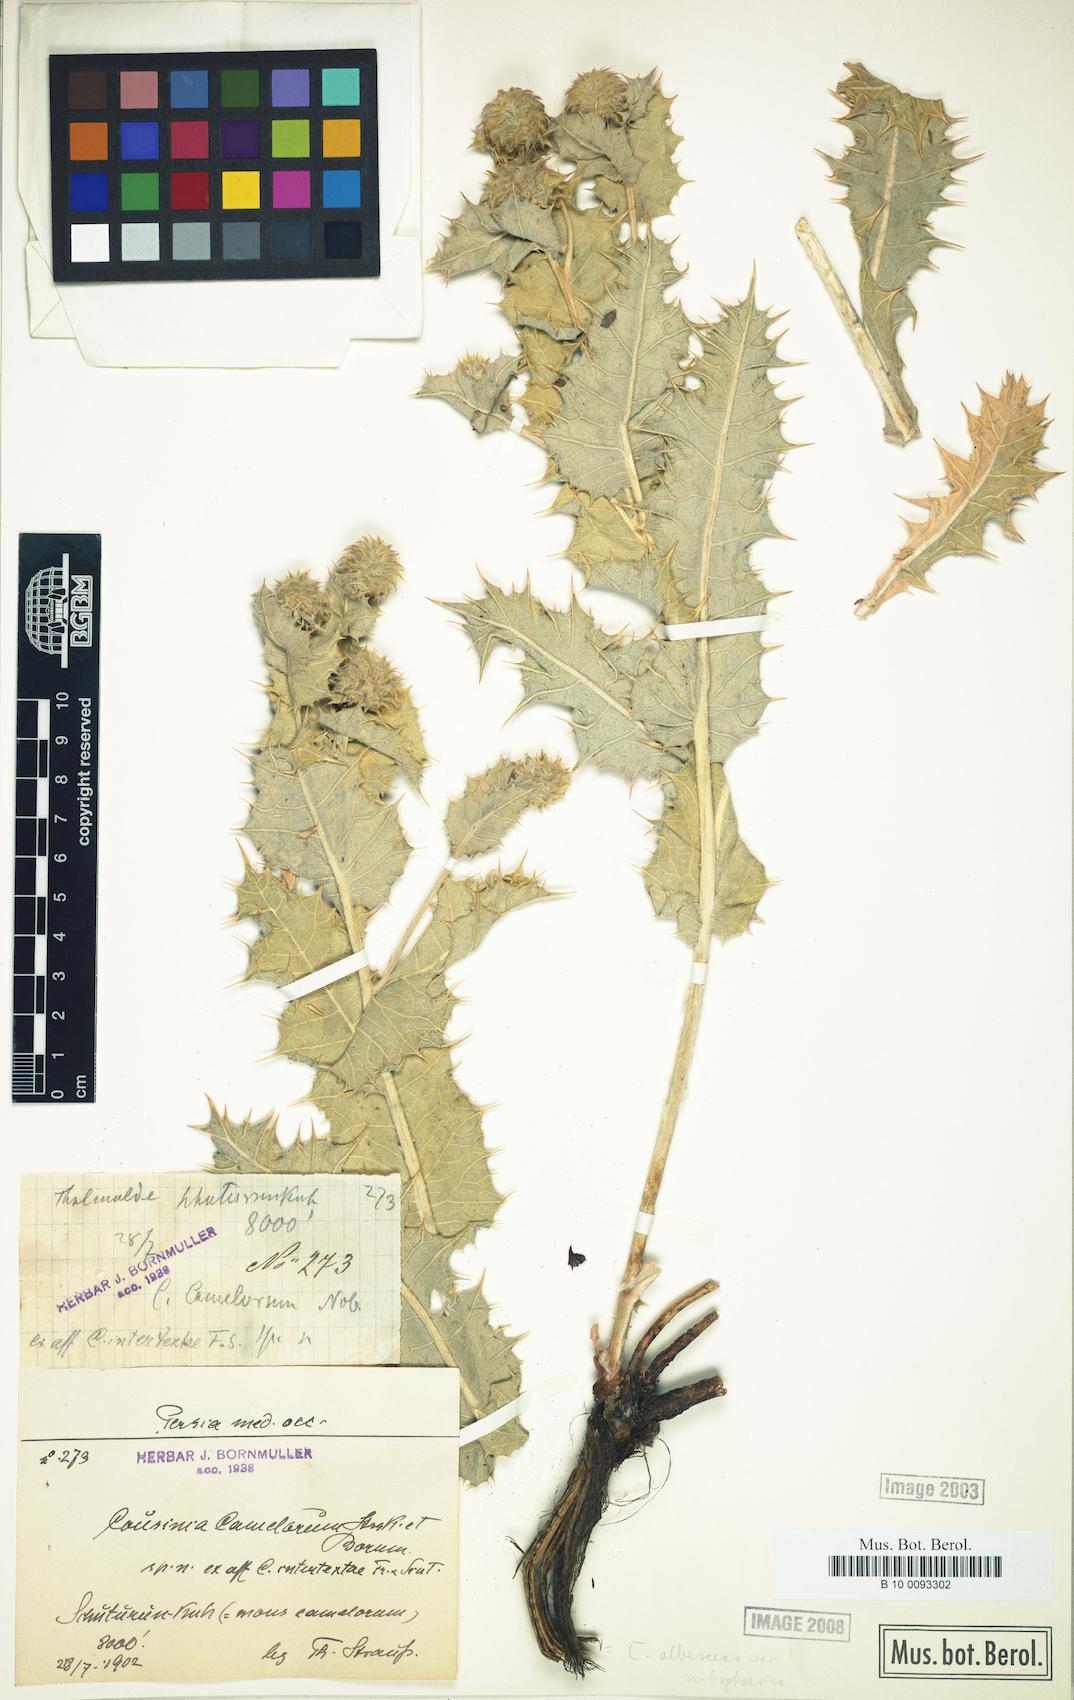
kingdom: Plantae
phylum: Tracheophyta
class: Magnoliopsida
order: Asterales
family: Asteraceae
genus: Cousinia
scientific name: Cousinia albescens
